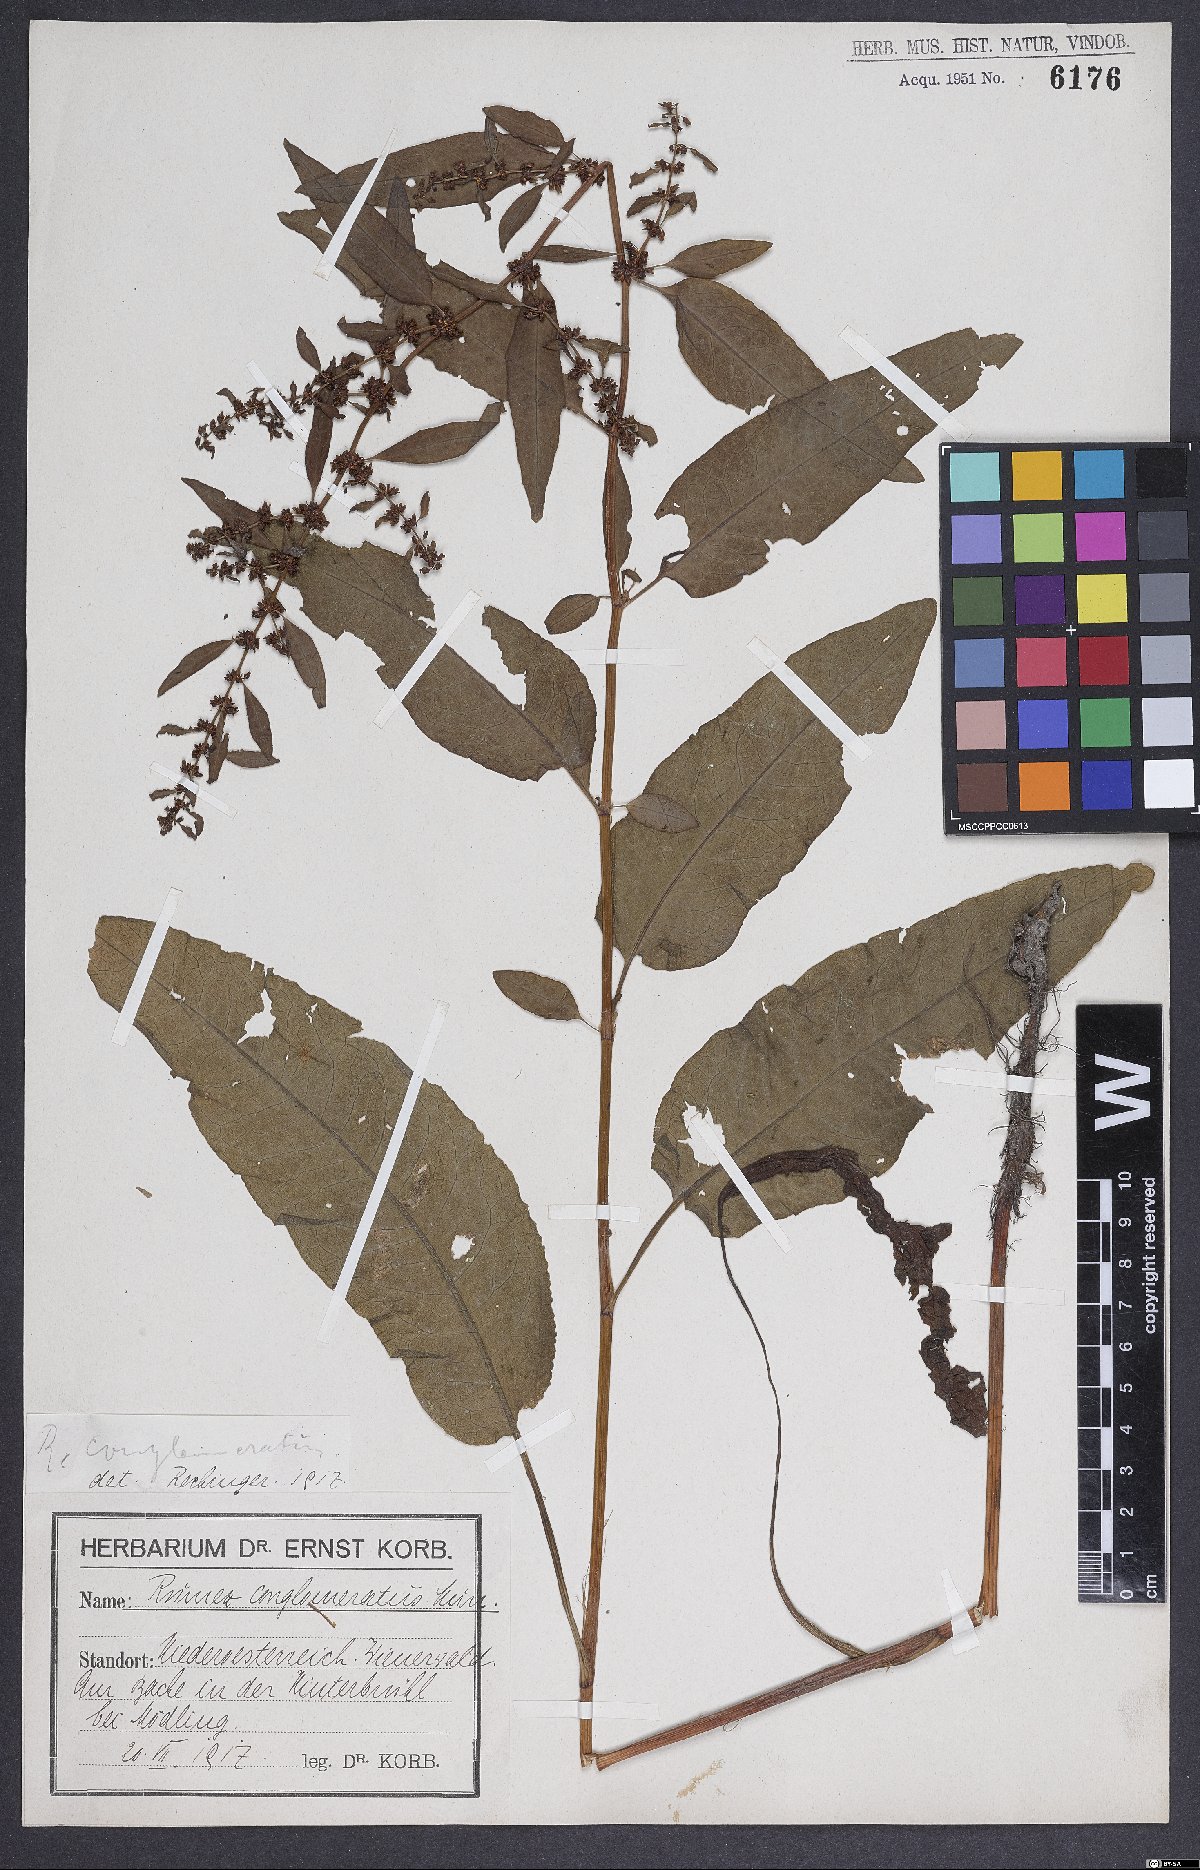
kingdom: Plantae
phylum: Tracheophyta
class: Magnoliopsida
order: Caryophyllales
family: Polygonaceae
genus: Rumex
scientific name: Rumex conglomeratus
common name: Clustered dock
